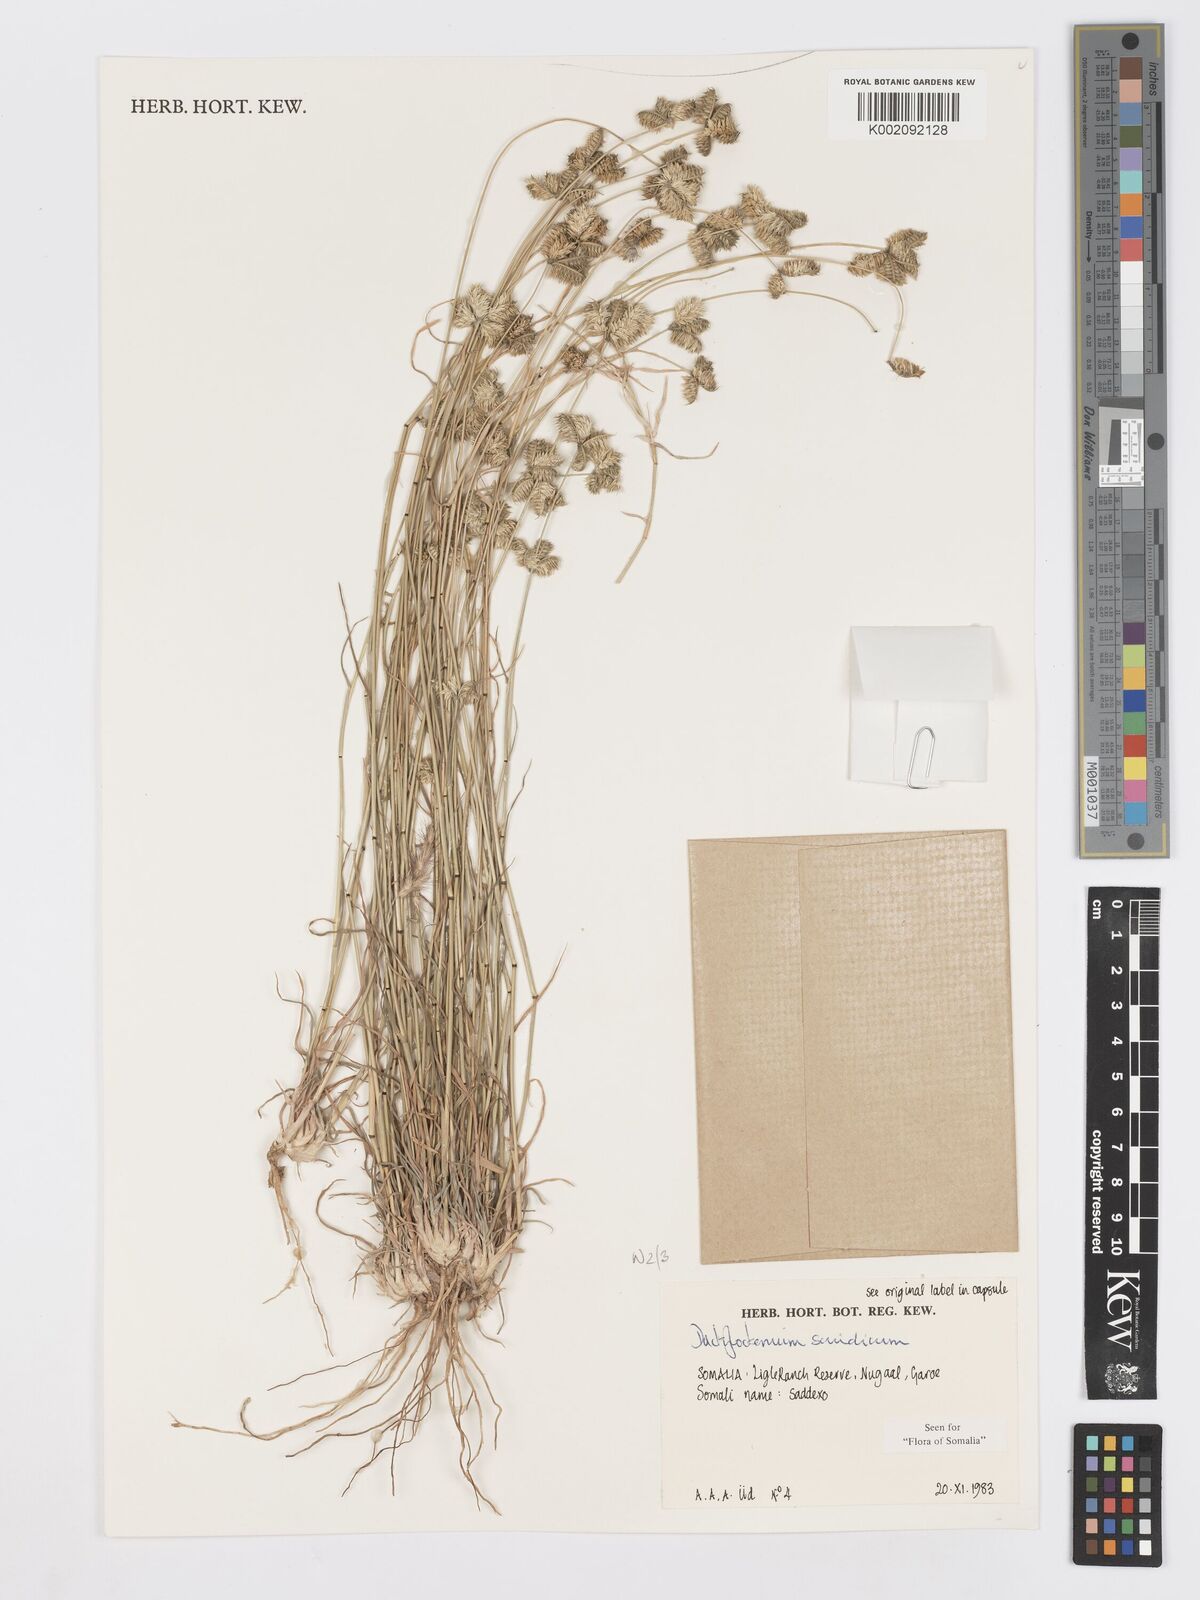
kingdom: Plantae
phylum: Tracheophyta
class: Liliopsida
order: Poales
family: Poaceae
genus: Dactyloctenium
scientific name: Dactyloctenium scindicum
